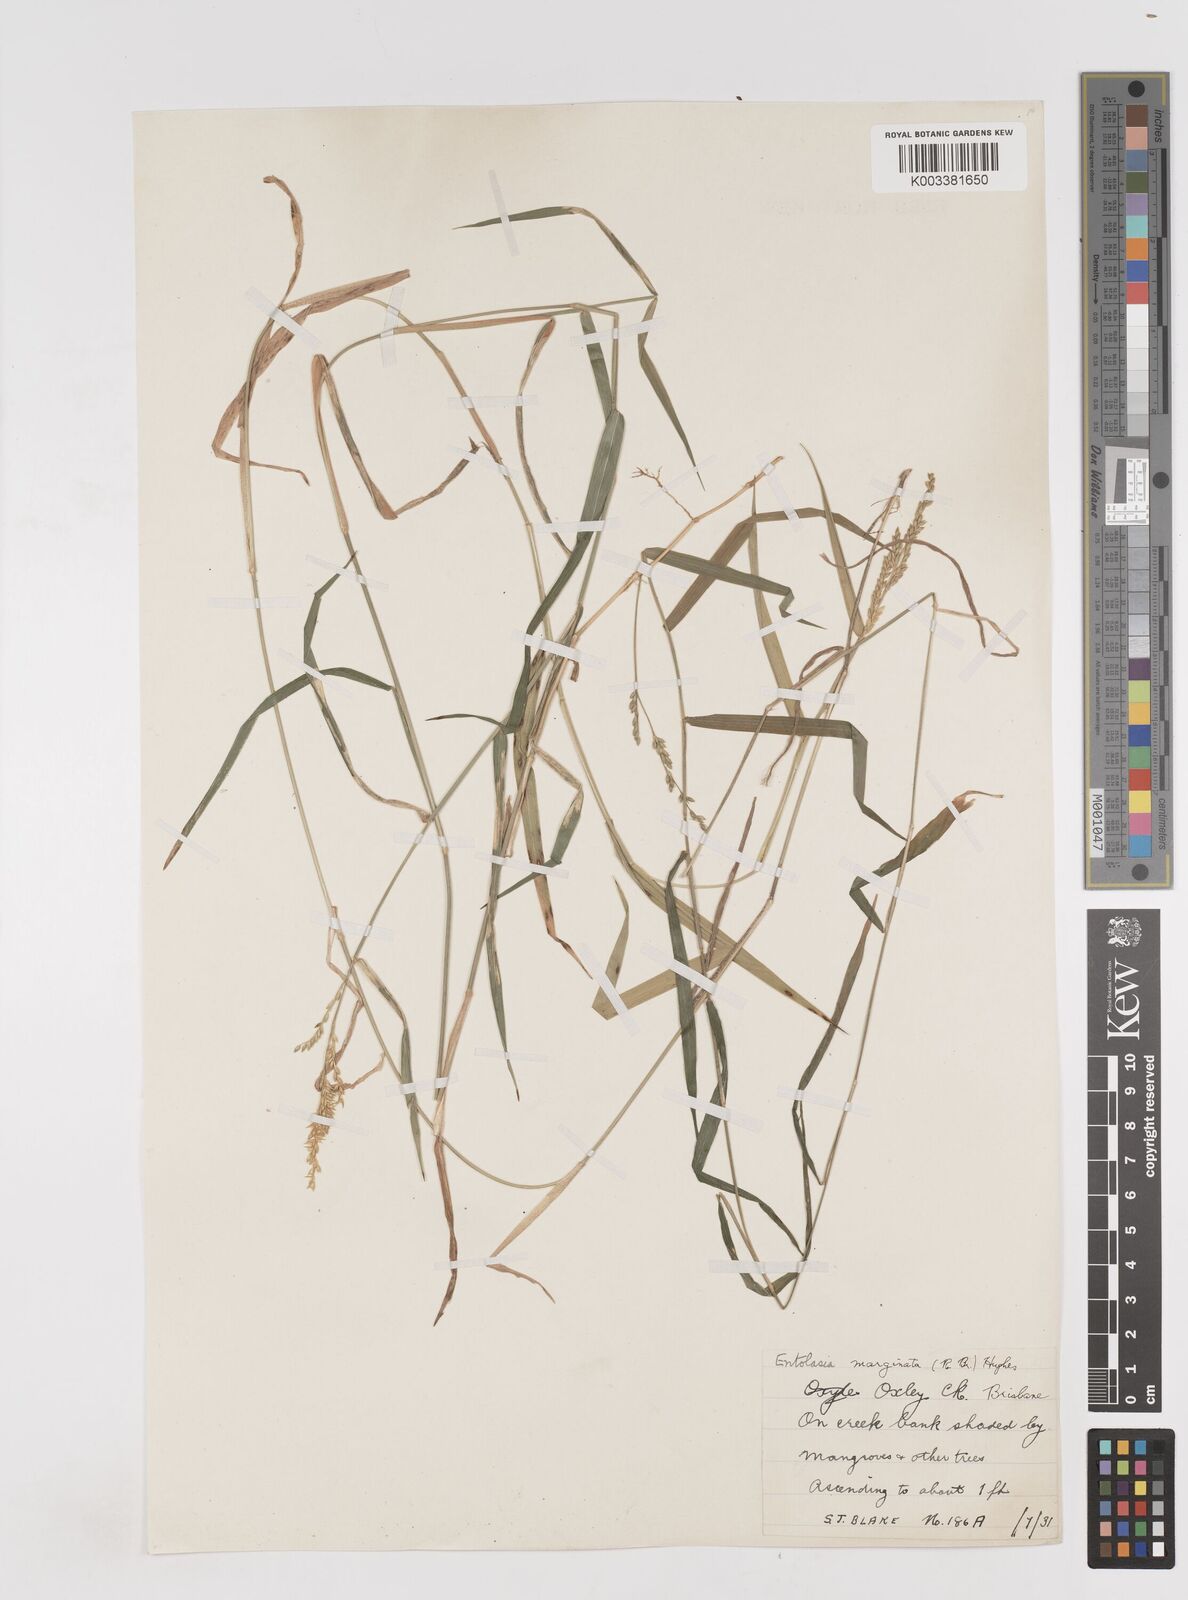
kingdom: Plantae
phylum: Tracheophyta
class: Liliopsida
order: Poales
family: Poaceae
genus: Entolasia
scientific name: Entolasia marginata
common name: Australian panicgrass
